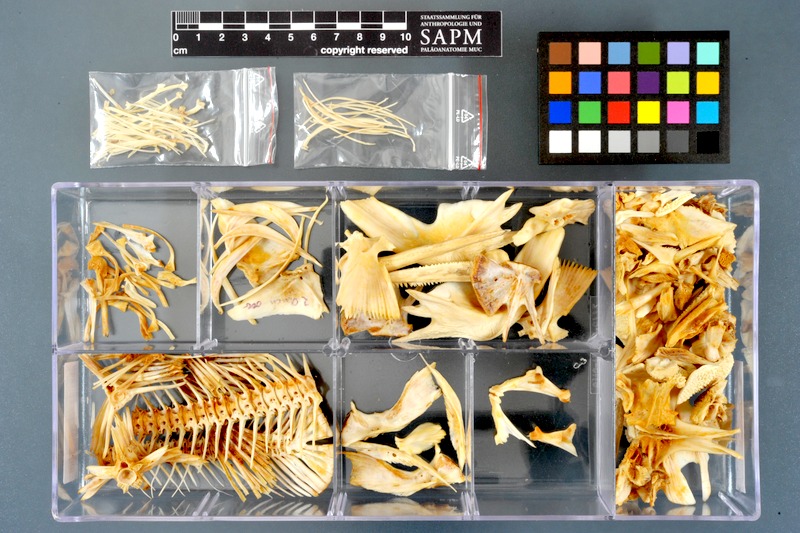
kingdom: Animalia
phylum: Chordata
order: Siluriformes
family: Claroteidae
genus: Auchenoglanis
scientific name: Auchenoglanis occidentalis
